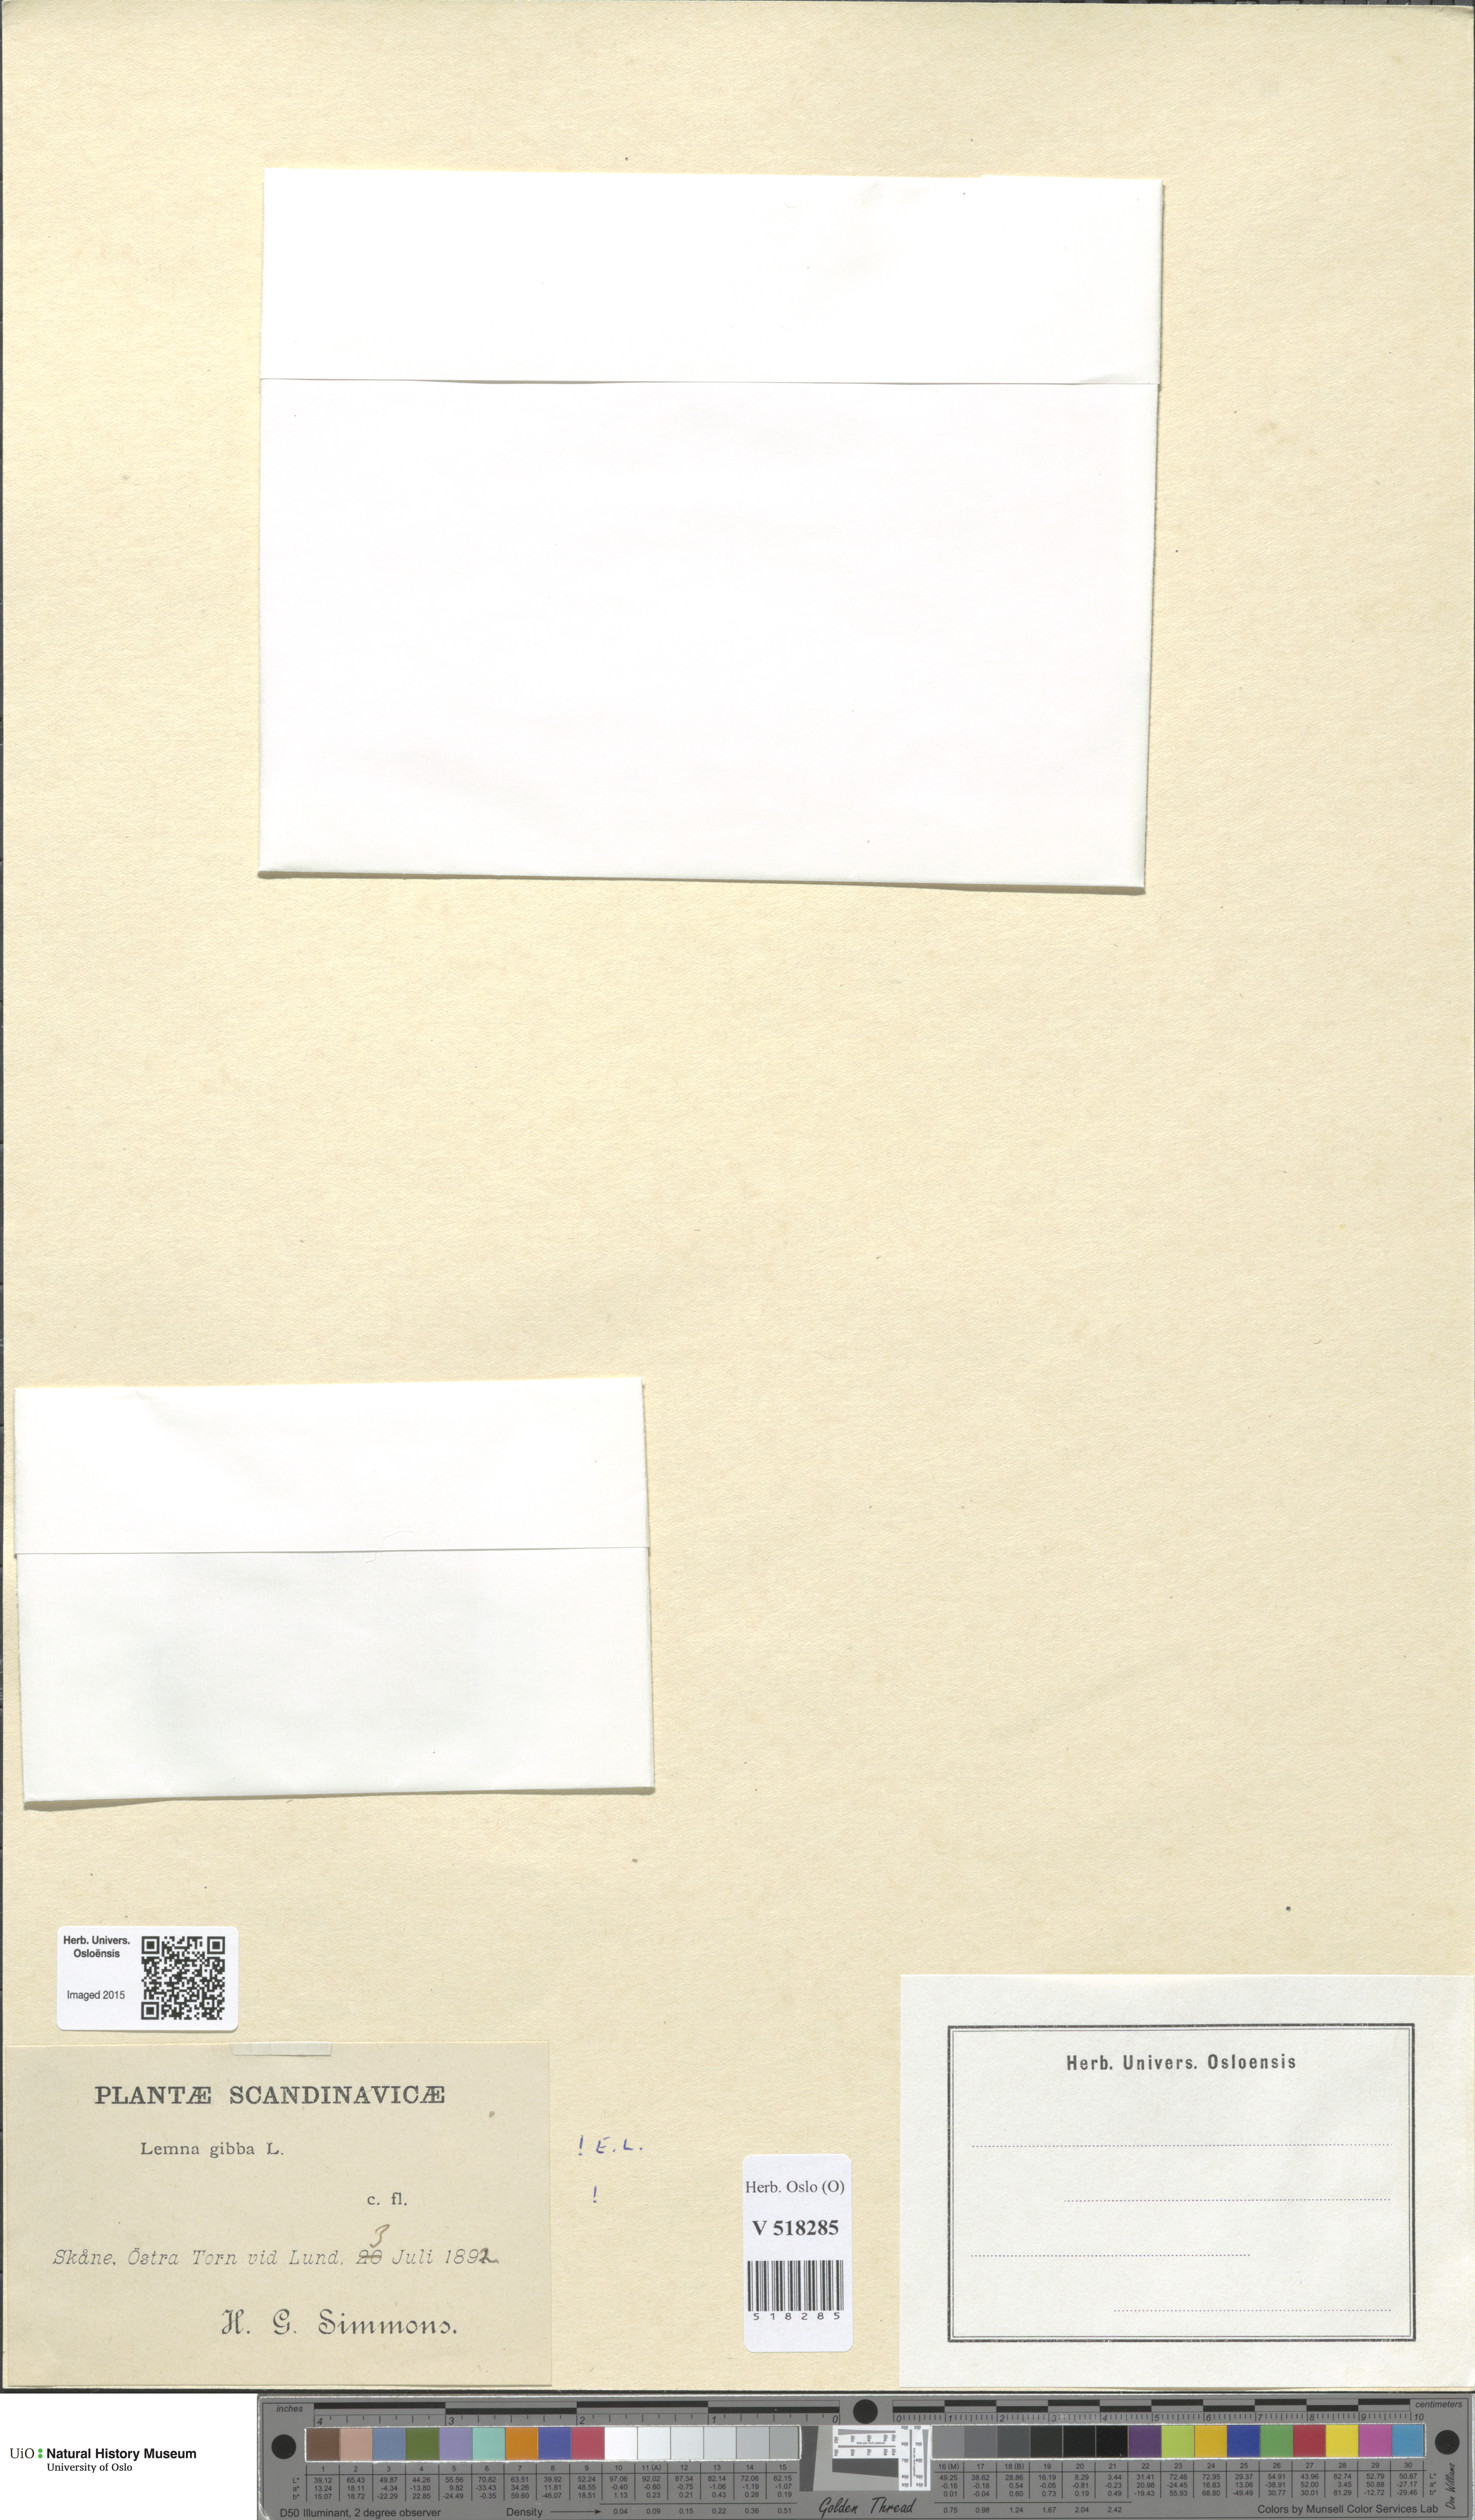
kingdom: Plantae
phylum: Tracheophyta
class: Liliopsida
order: Alismatales
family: Araceae
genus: Lemna
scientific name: Lemna gibba
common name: Fat duckweed
